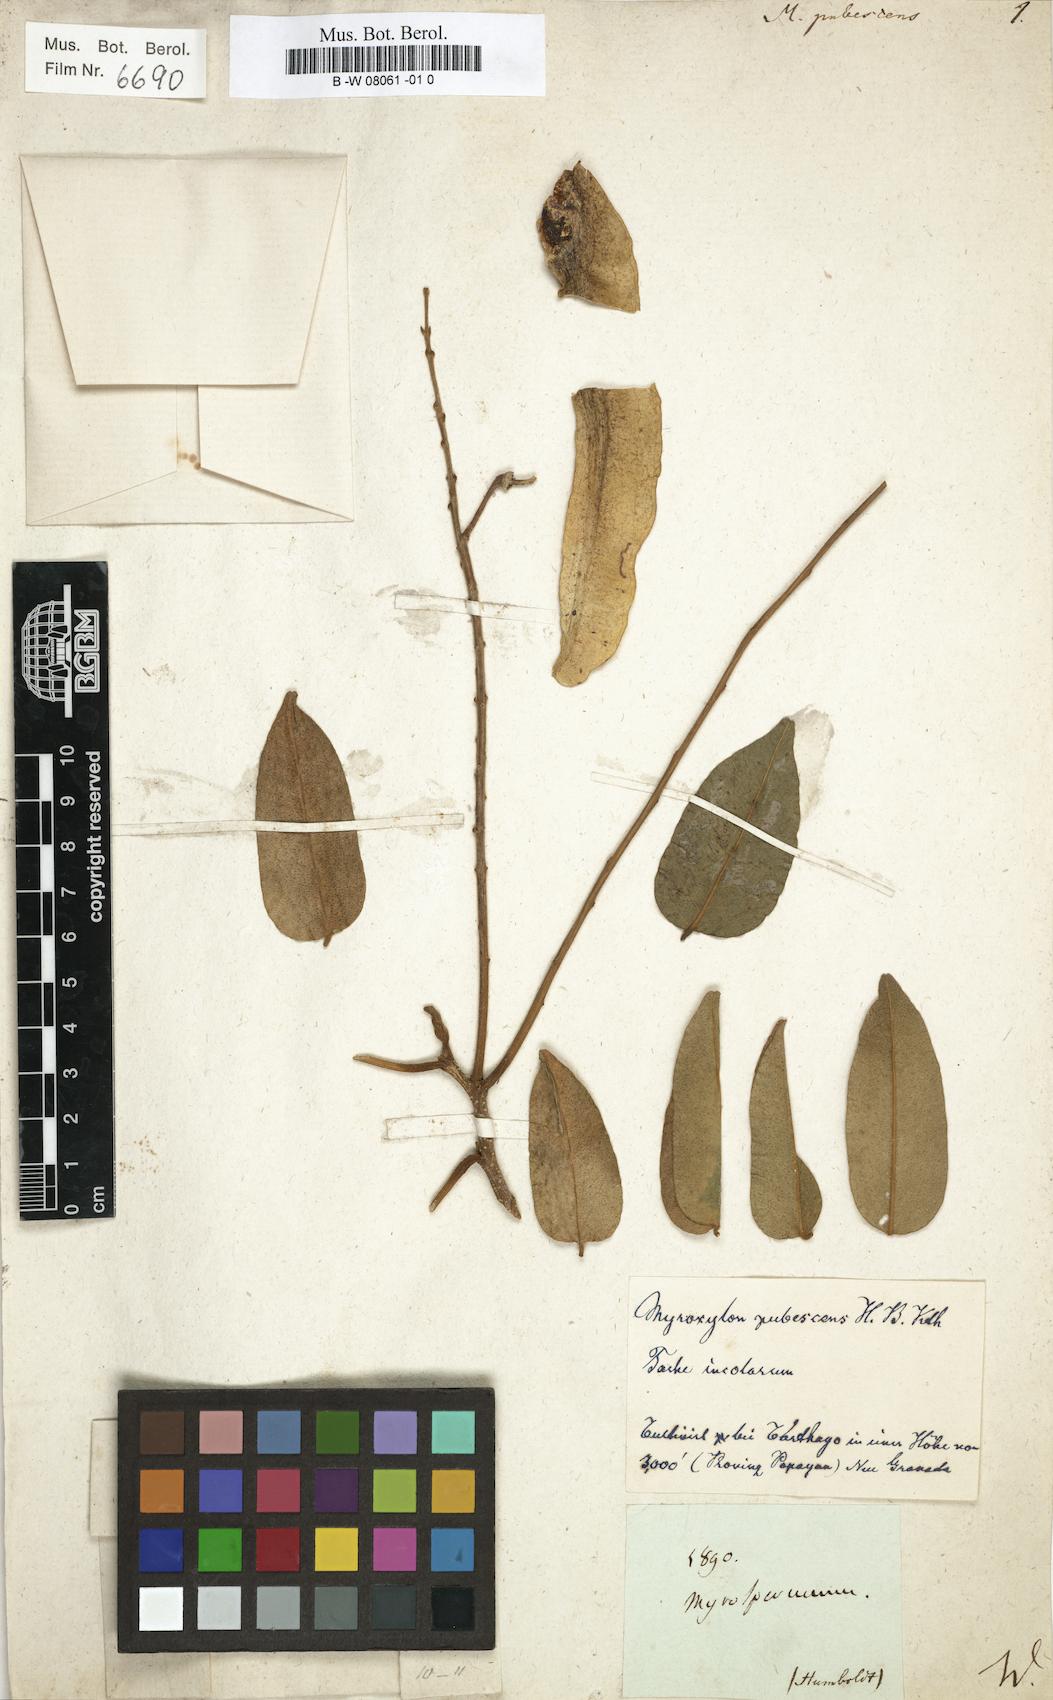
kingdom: Plantae
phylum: Tracheophyta
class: Magnoliopsida
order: Fabales
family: Fabaceae
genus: Myroxylon
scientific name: Myroxylon peruiferum
